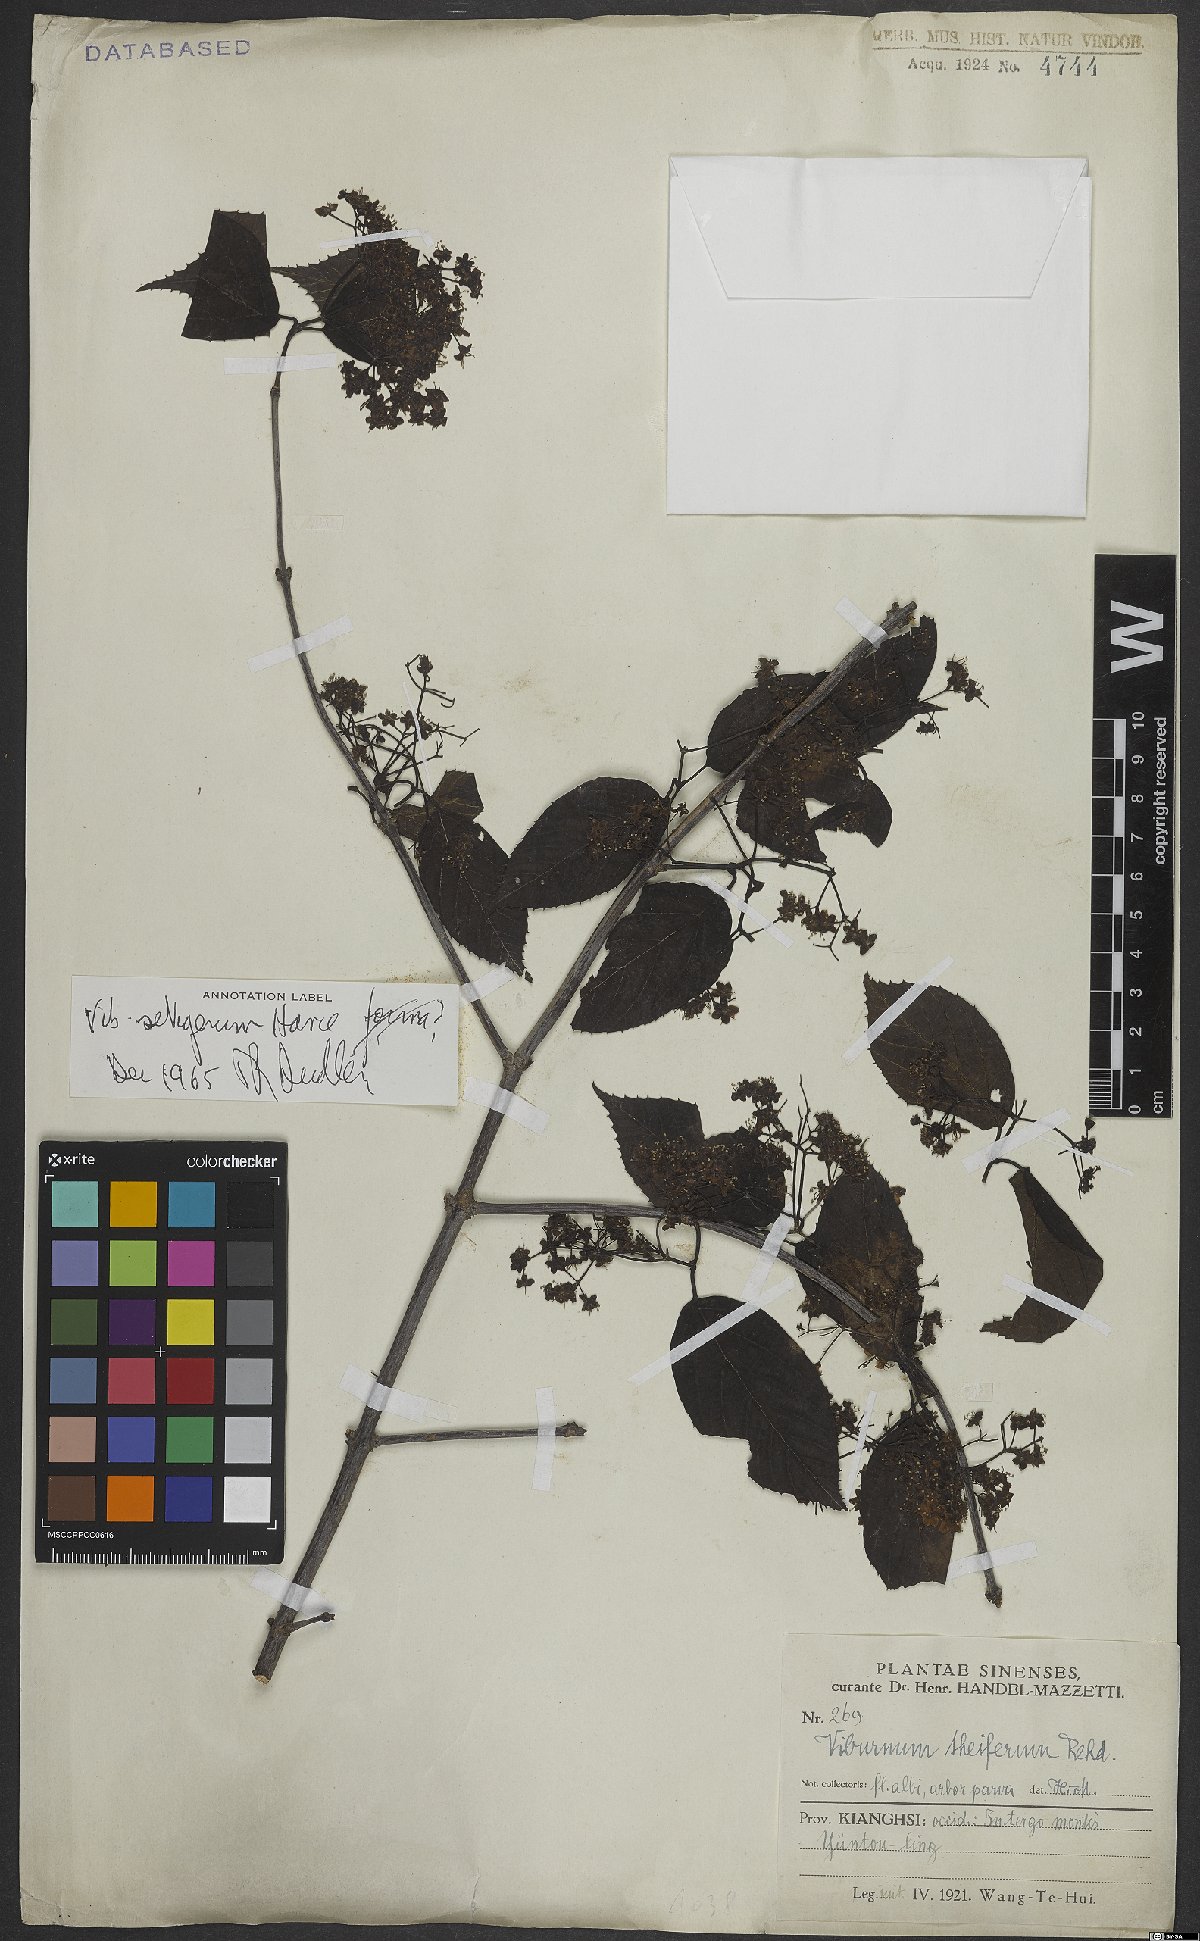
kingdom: Plantae
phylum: Tracheophyta
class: Magnoliopsida
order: Dipsacales
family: Viburnaceae
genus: Viburnum
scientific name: Viburnum
